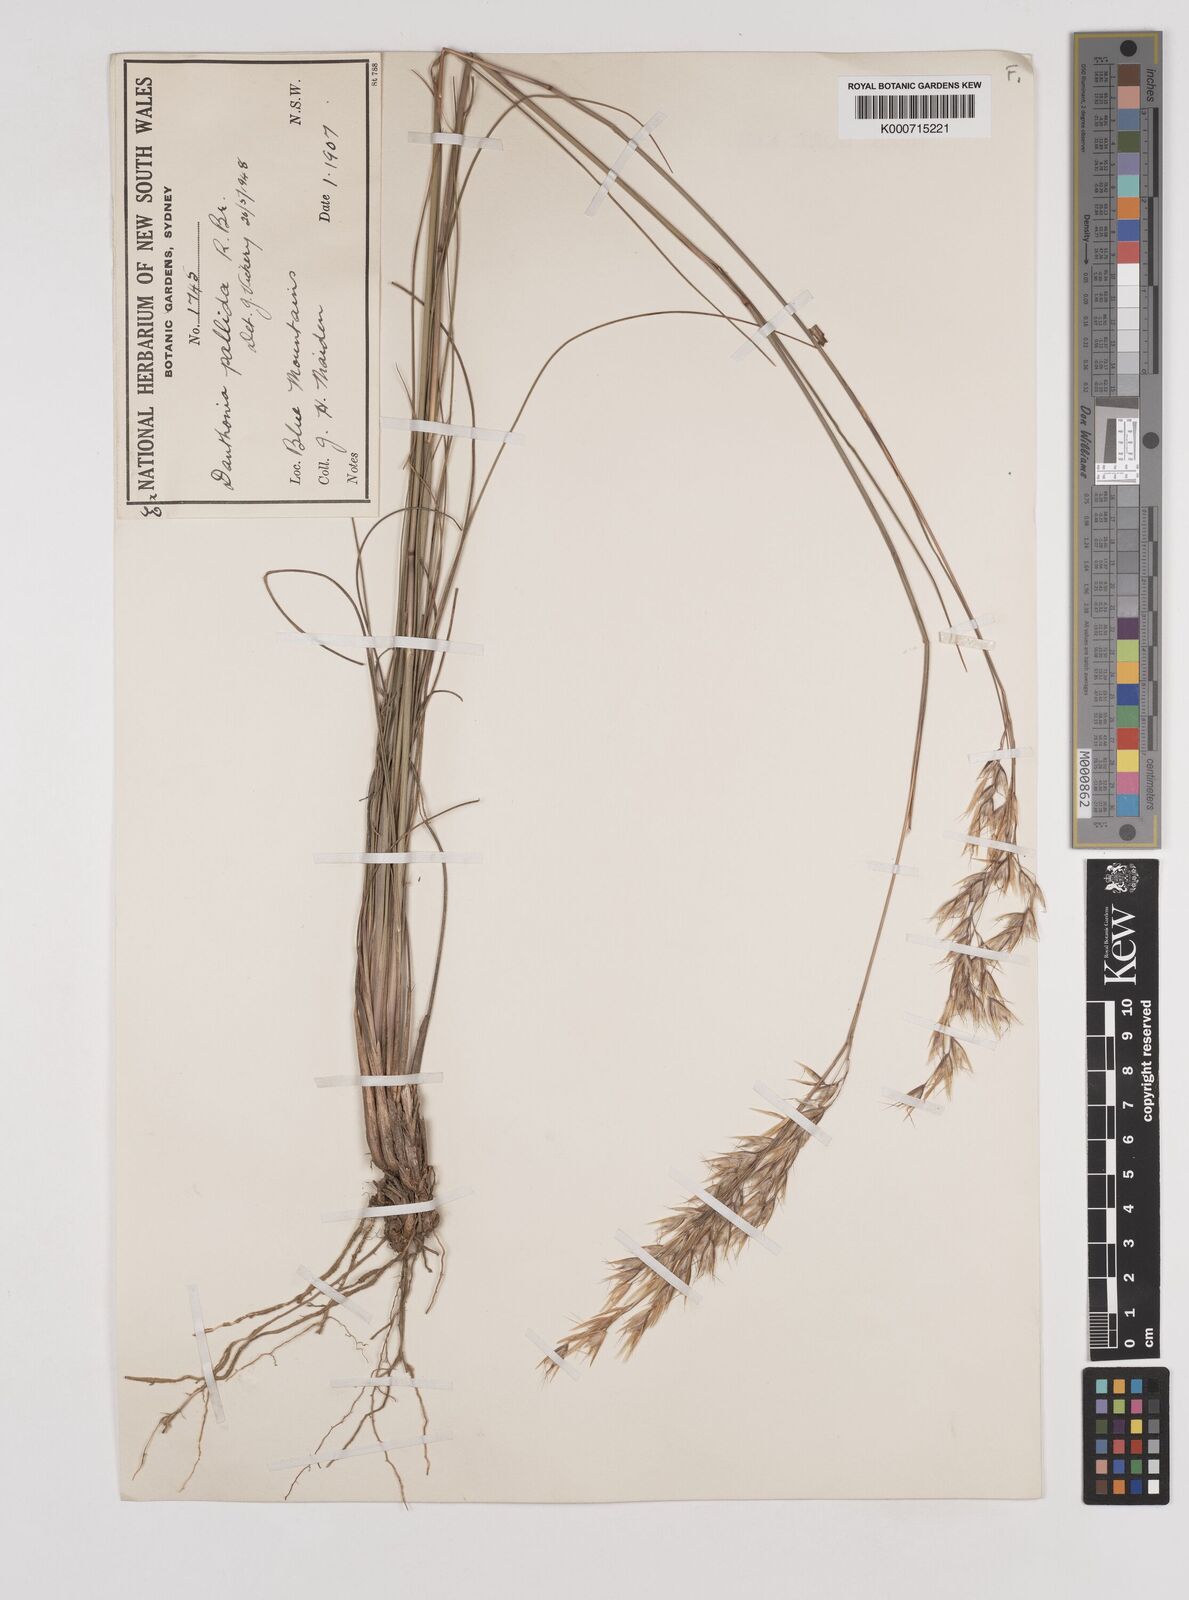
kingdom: Plantae
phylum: Tracheophyta
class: Liliopsida
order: Poales
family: Poaceae
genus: Rytidosperma
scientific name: Rytidosperma
